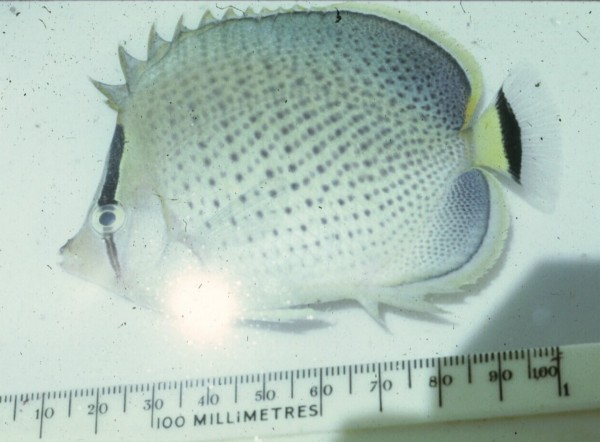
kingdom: Animalia
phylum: Chordata
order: Perciformes
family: Chaetodontidae
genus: Chaetodon
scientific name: Chaetodon guttatissimus
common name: Spotted butterflyfish
